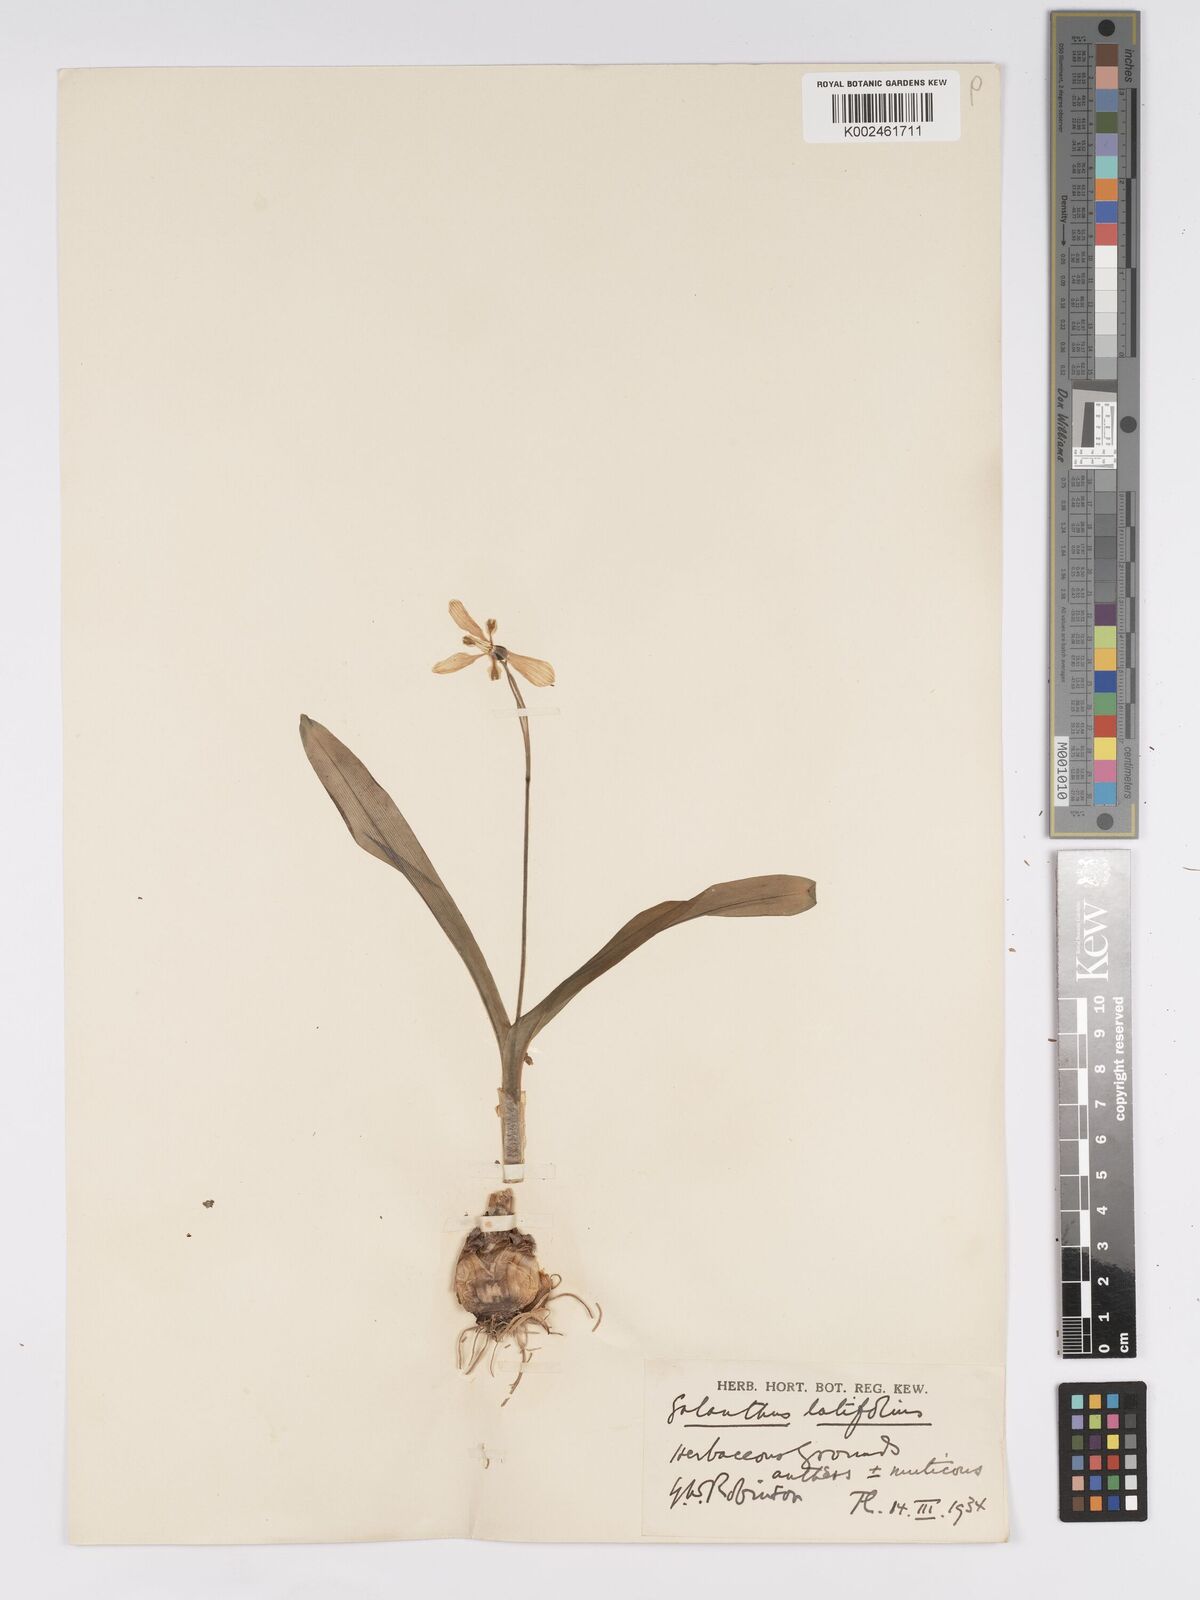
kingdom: Plantae
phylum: Tracheophyta
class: Liliopsida
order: Asparagales
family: Amaryllidaceae
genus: Galanthus
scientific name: Galanthus platyphyllus
